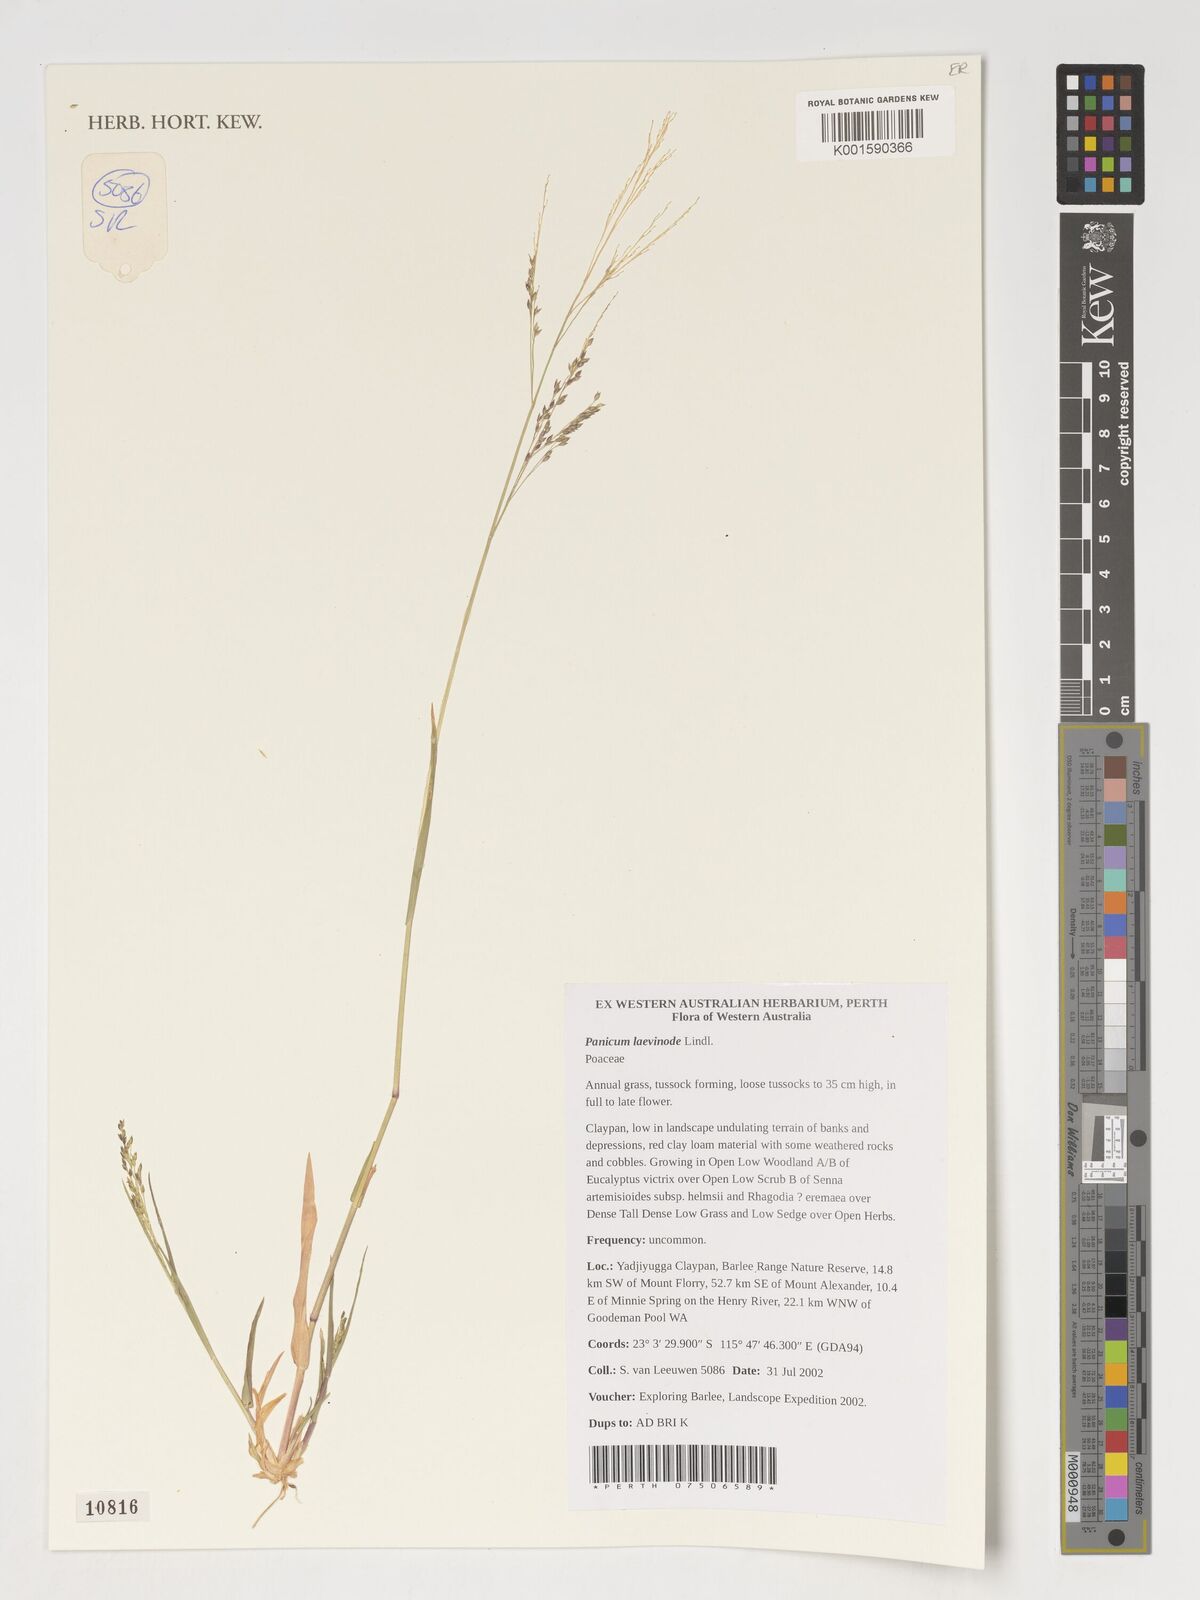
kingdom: Plantae
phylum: Tracheophyta
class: Liliopsida
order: Poales
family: Poaceae
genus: Panicum
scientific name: Panicum laevinode
